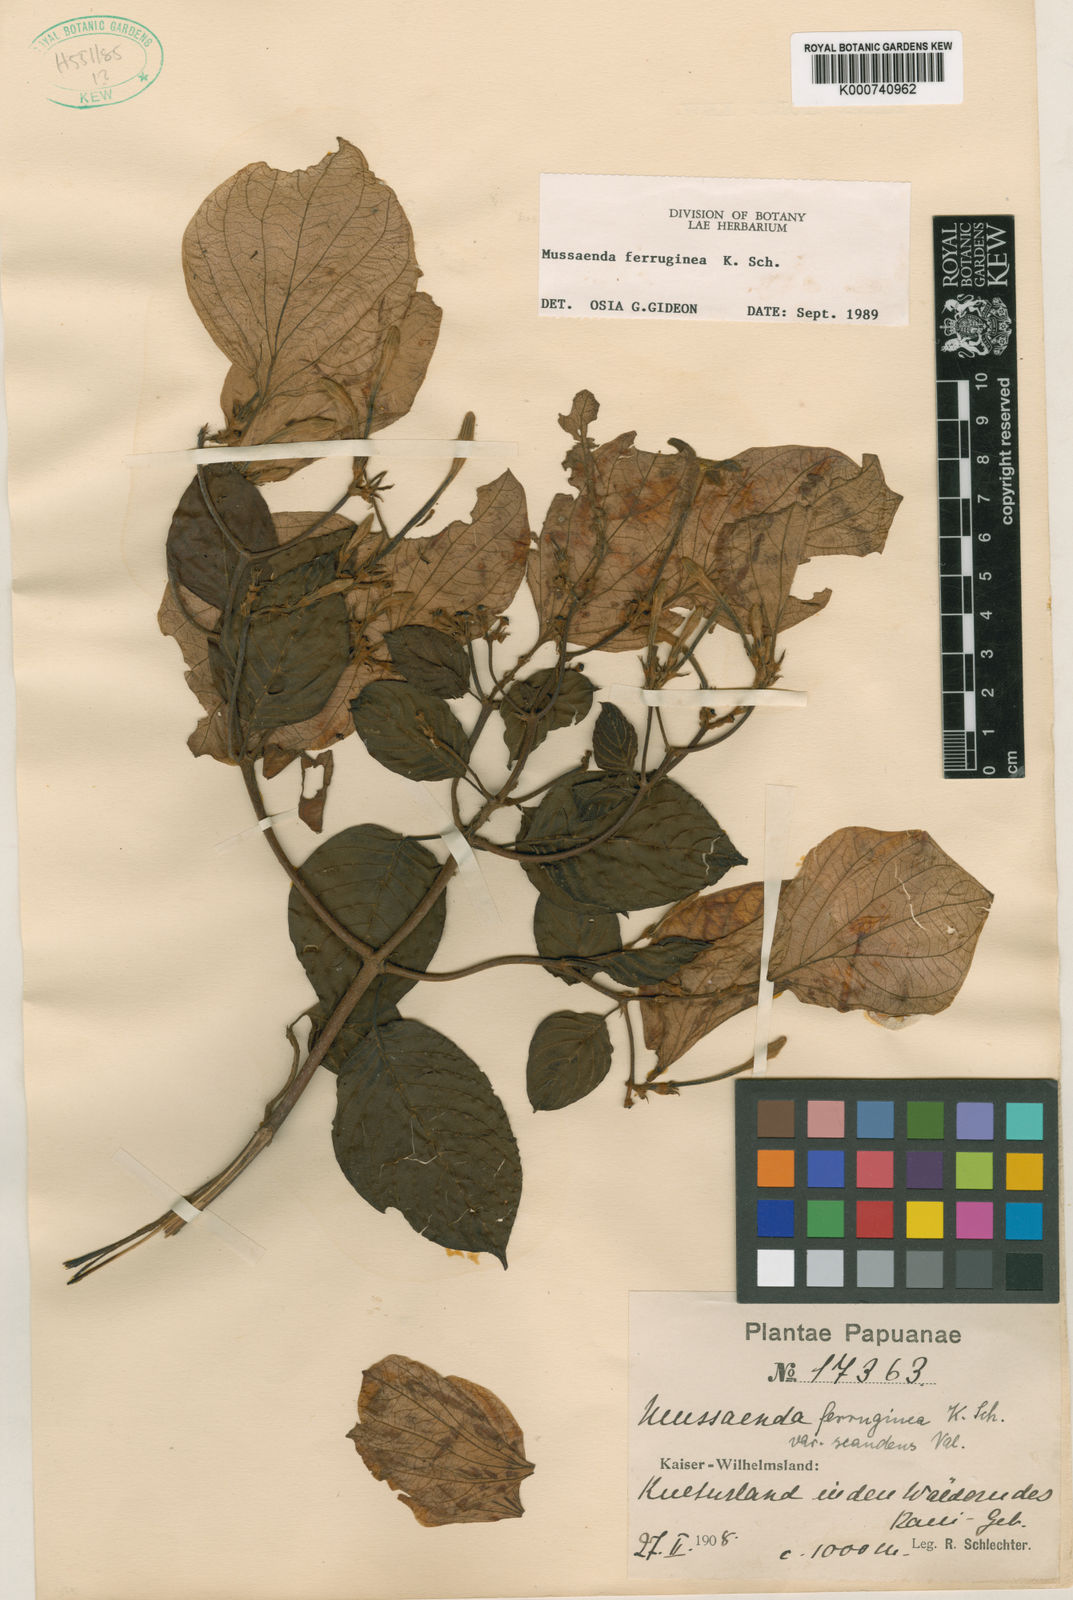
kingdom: Plantae
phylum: Tracheophyta
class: Magnoliopsida
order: Gentianales
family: Rubiaceae
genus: Mussaenda
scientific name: Mussaenda ferruginea
